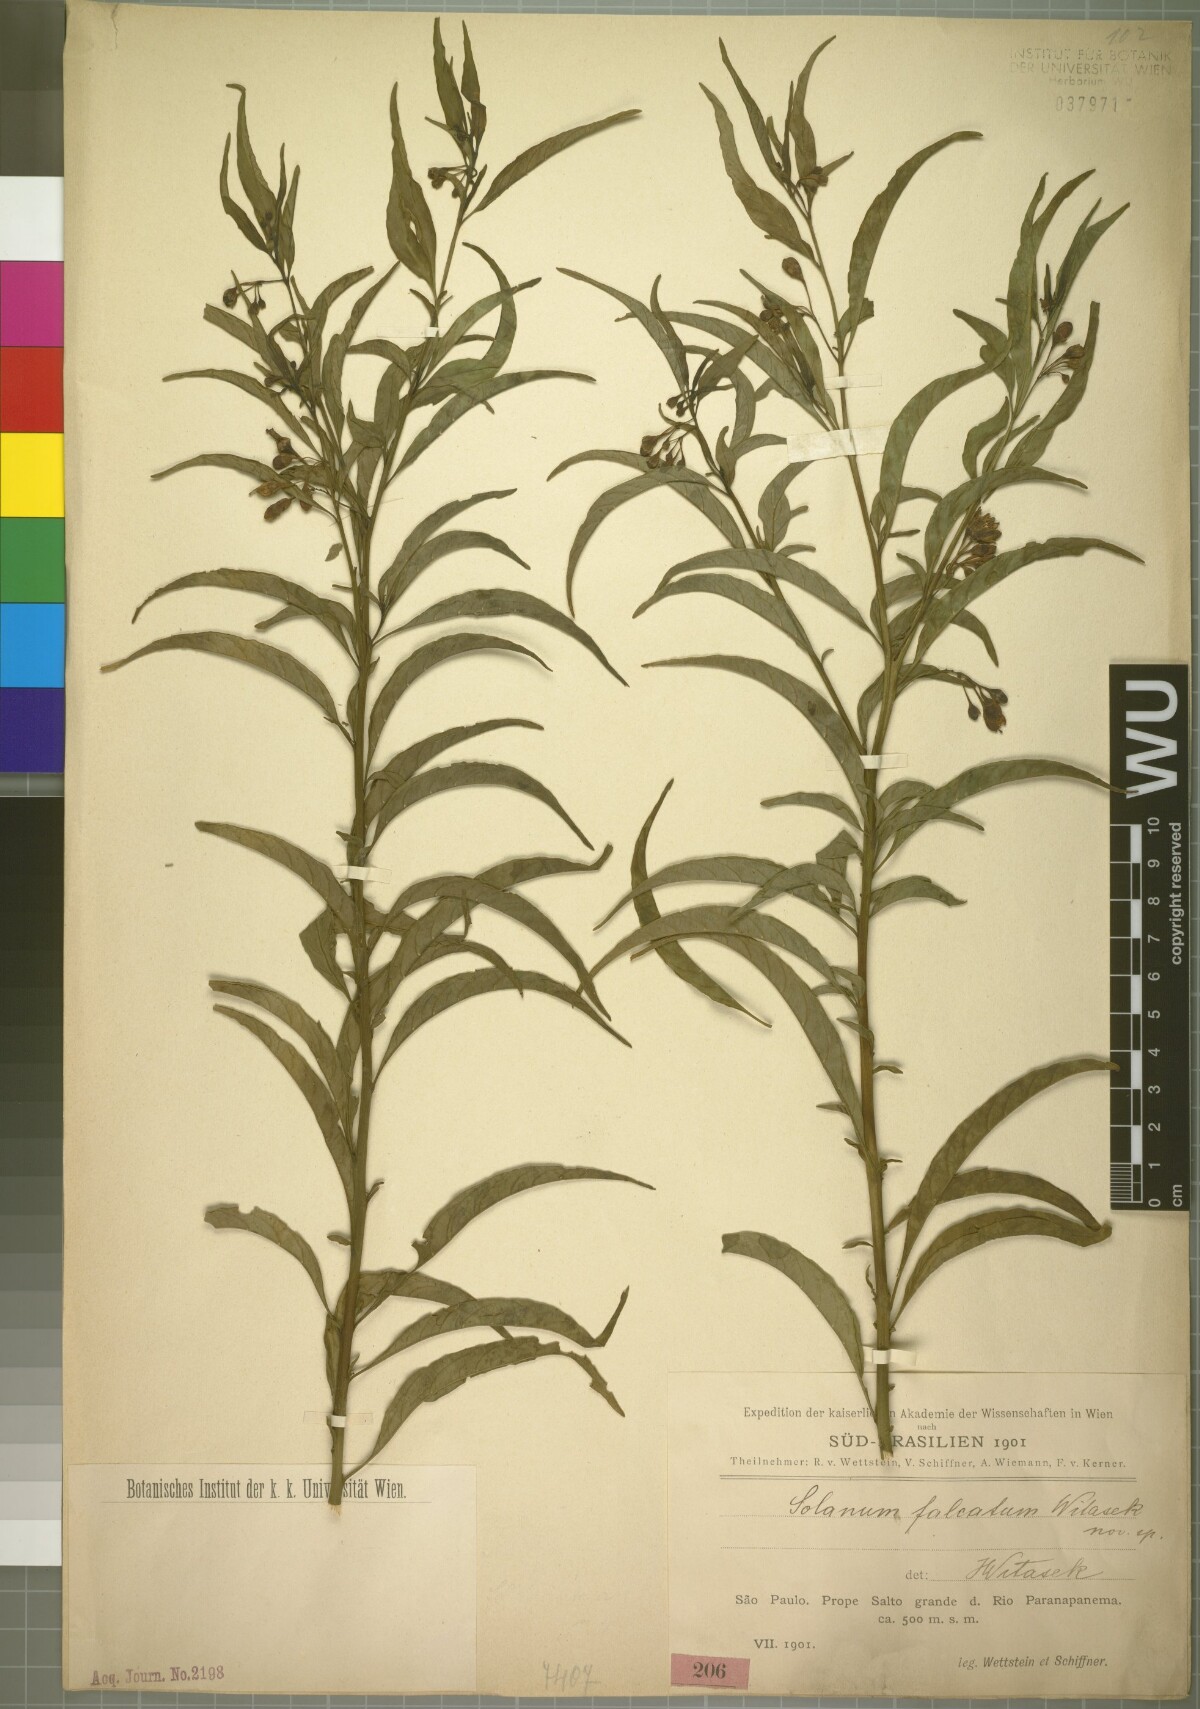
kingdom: Plantae
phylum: Tracheophyta
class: Magnoliopsida
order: Solanales
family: Solanaceae
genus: Solanum
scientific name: Solanum campaniforme
